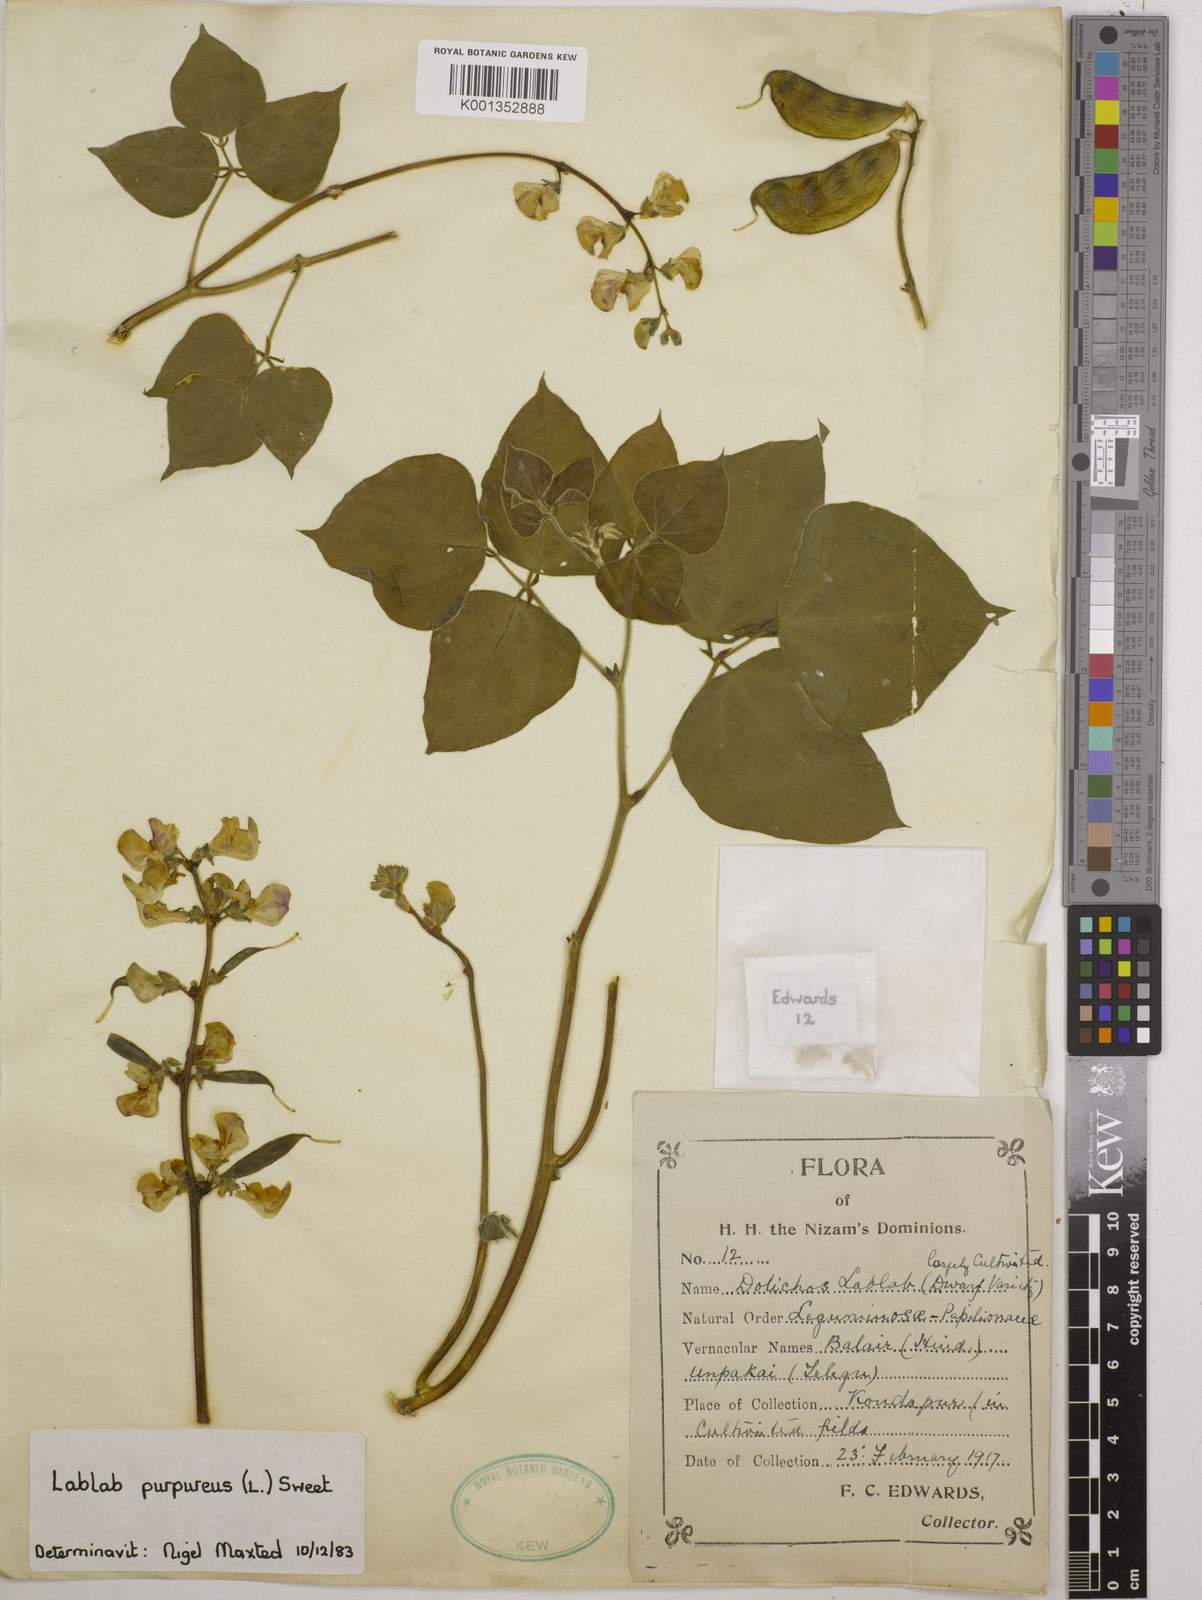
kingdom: Plantae
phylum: Tracheophyta
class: Magnoliopsida
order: Fabales
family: Fabaceae
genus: Lablab
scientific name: Lablab purpureus
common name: Lablab-bean
